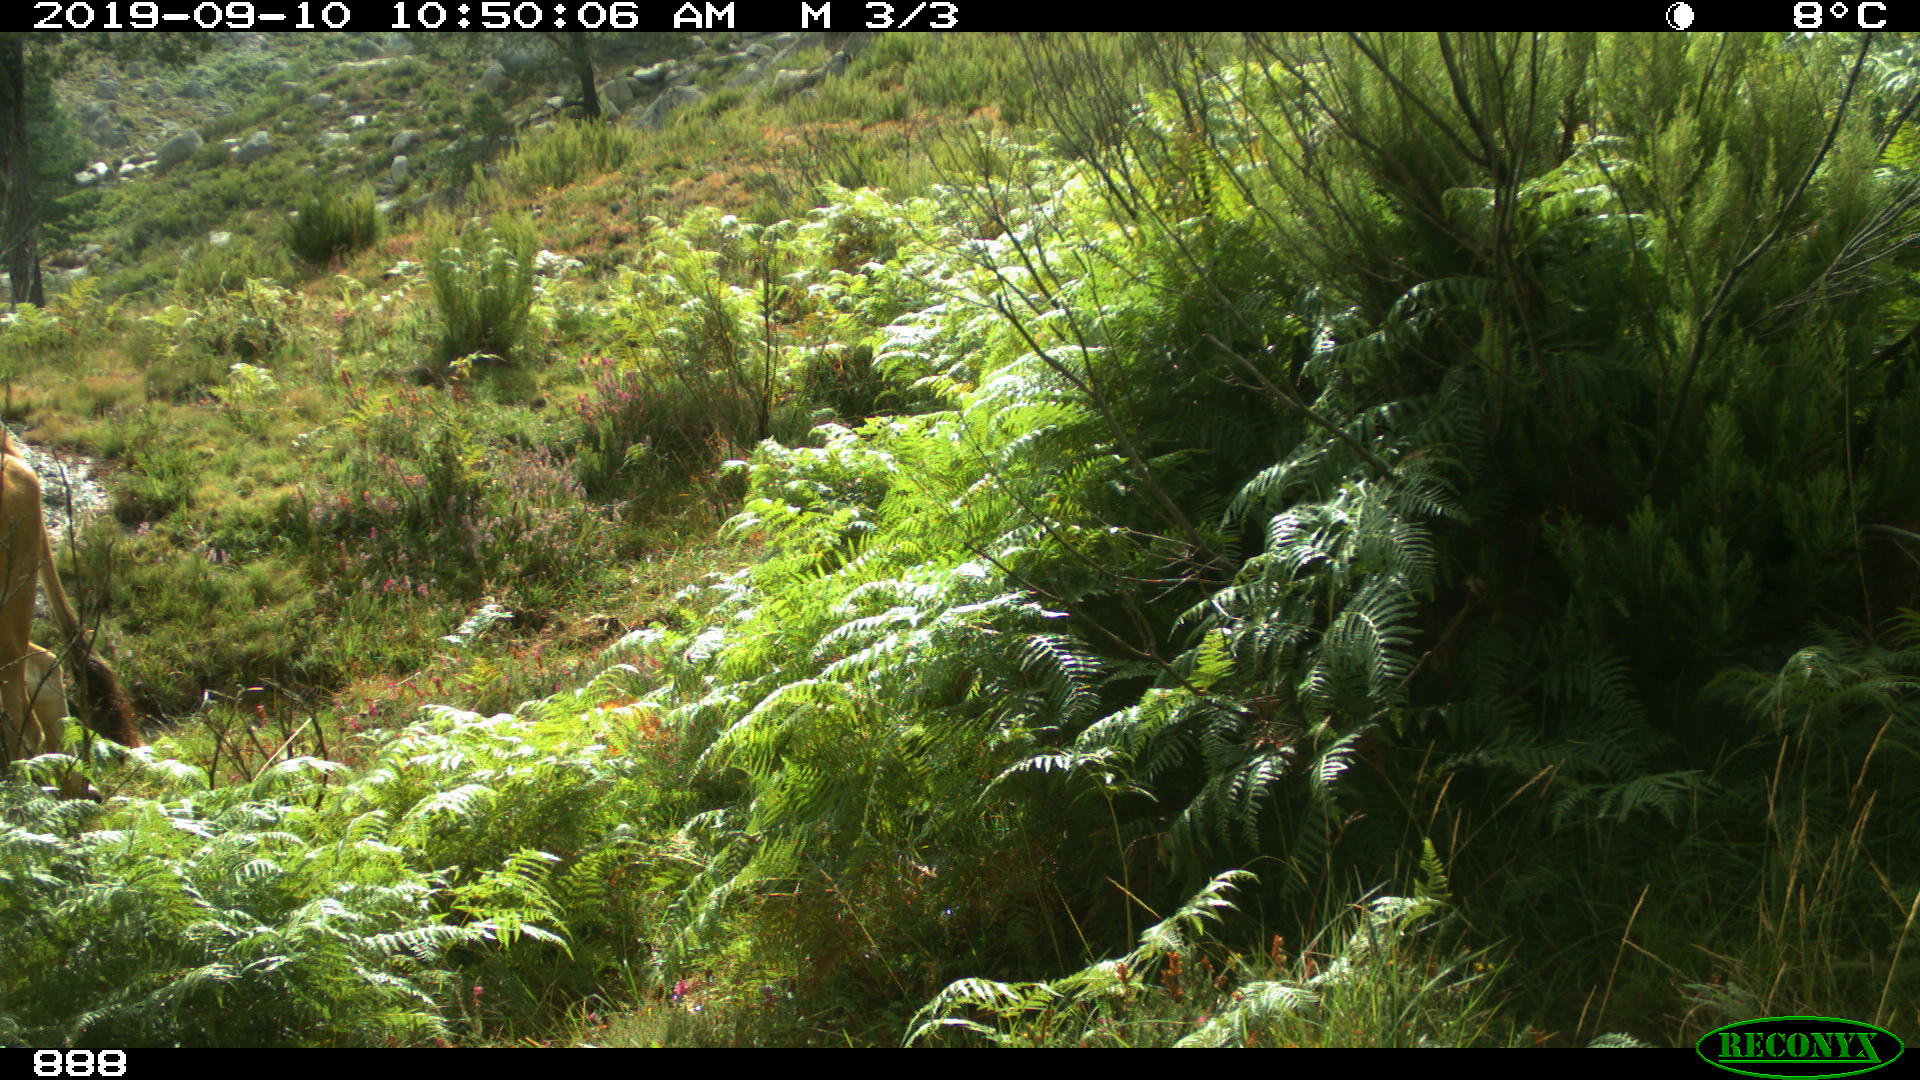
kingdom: Animalia
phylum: Chordata
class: Mammalia
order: Artiodactyla
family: Bovidae
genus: Bos
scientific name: Bos taurus
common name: Domesticated cattle
